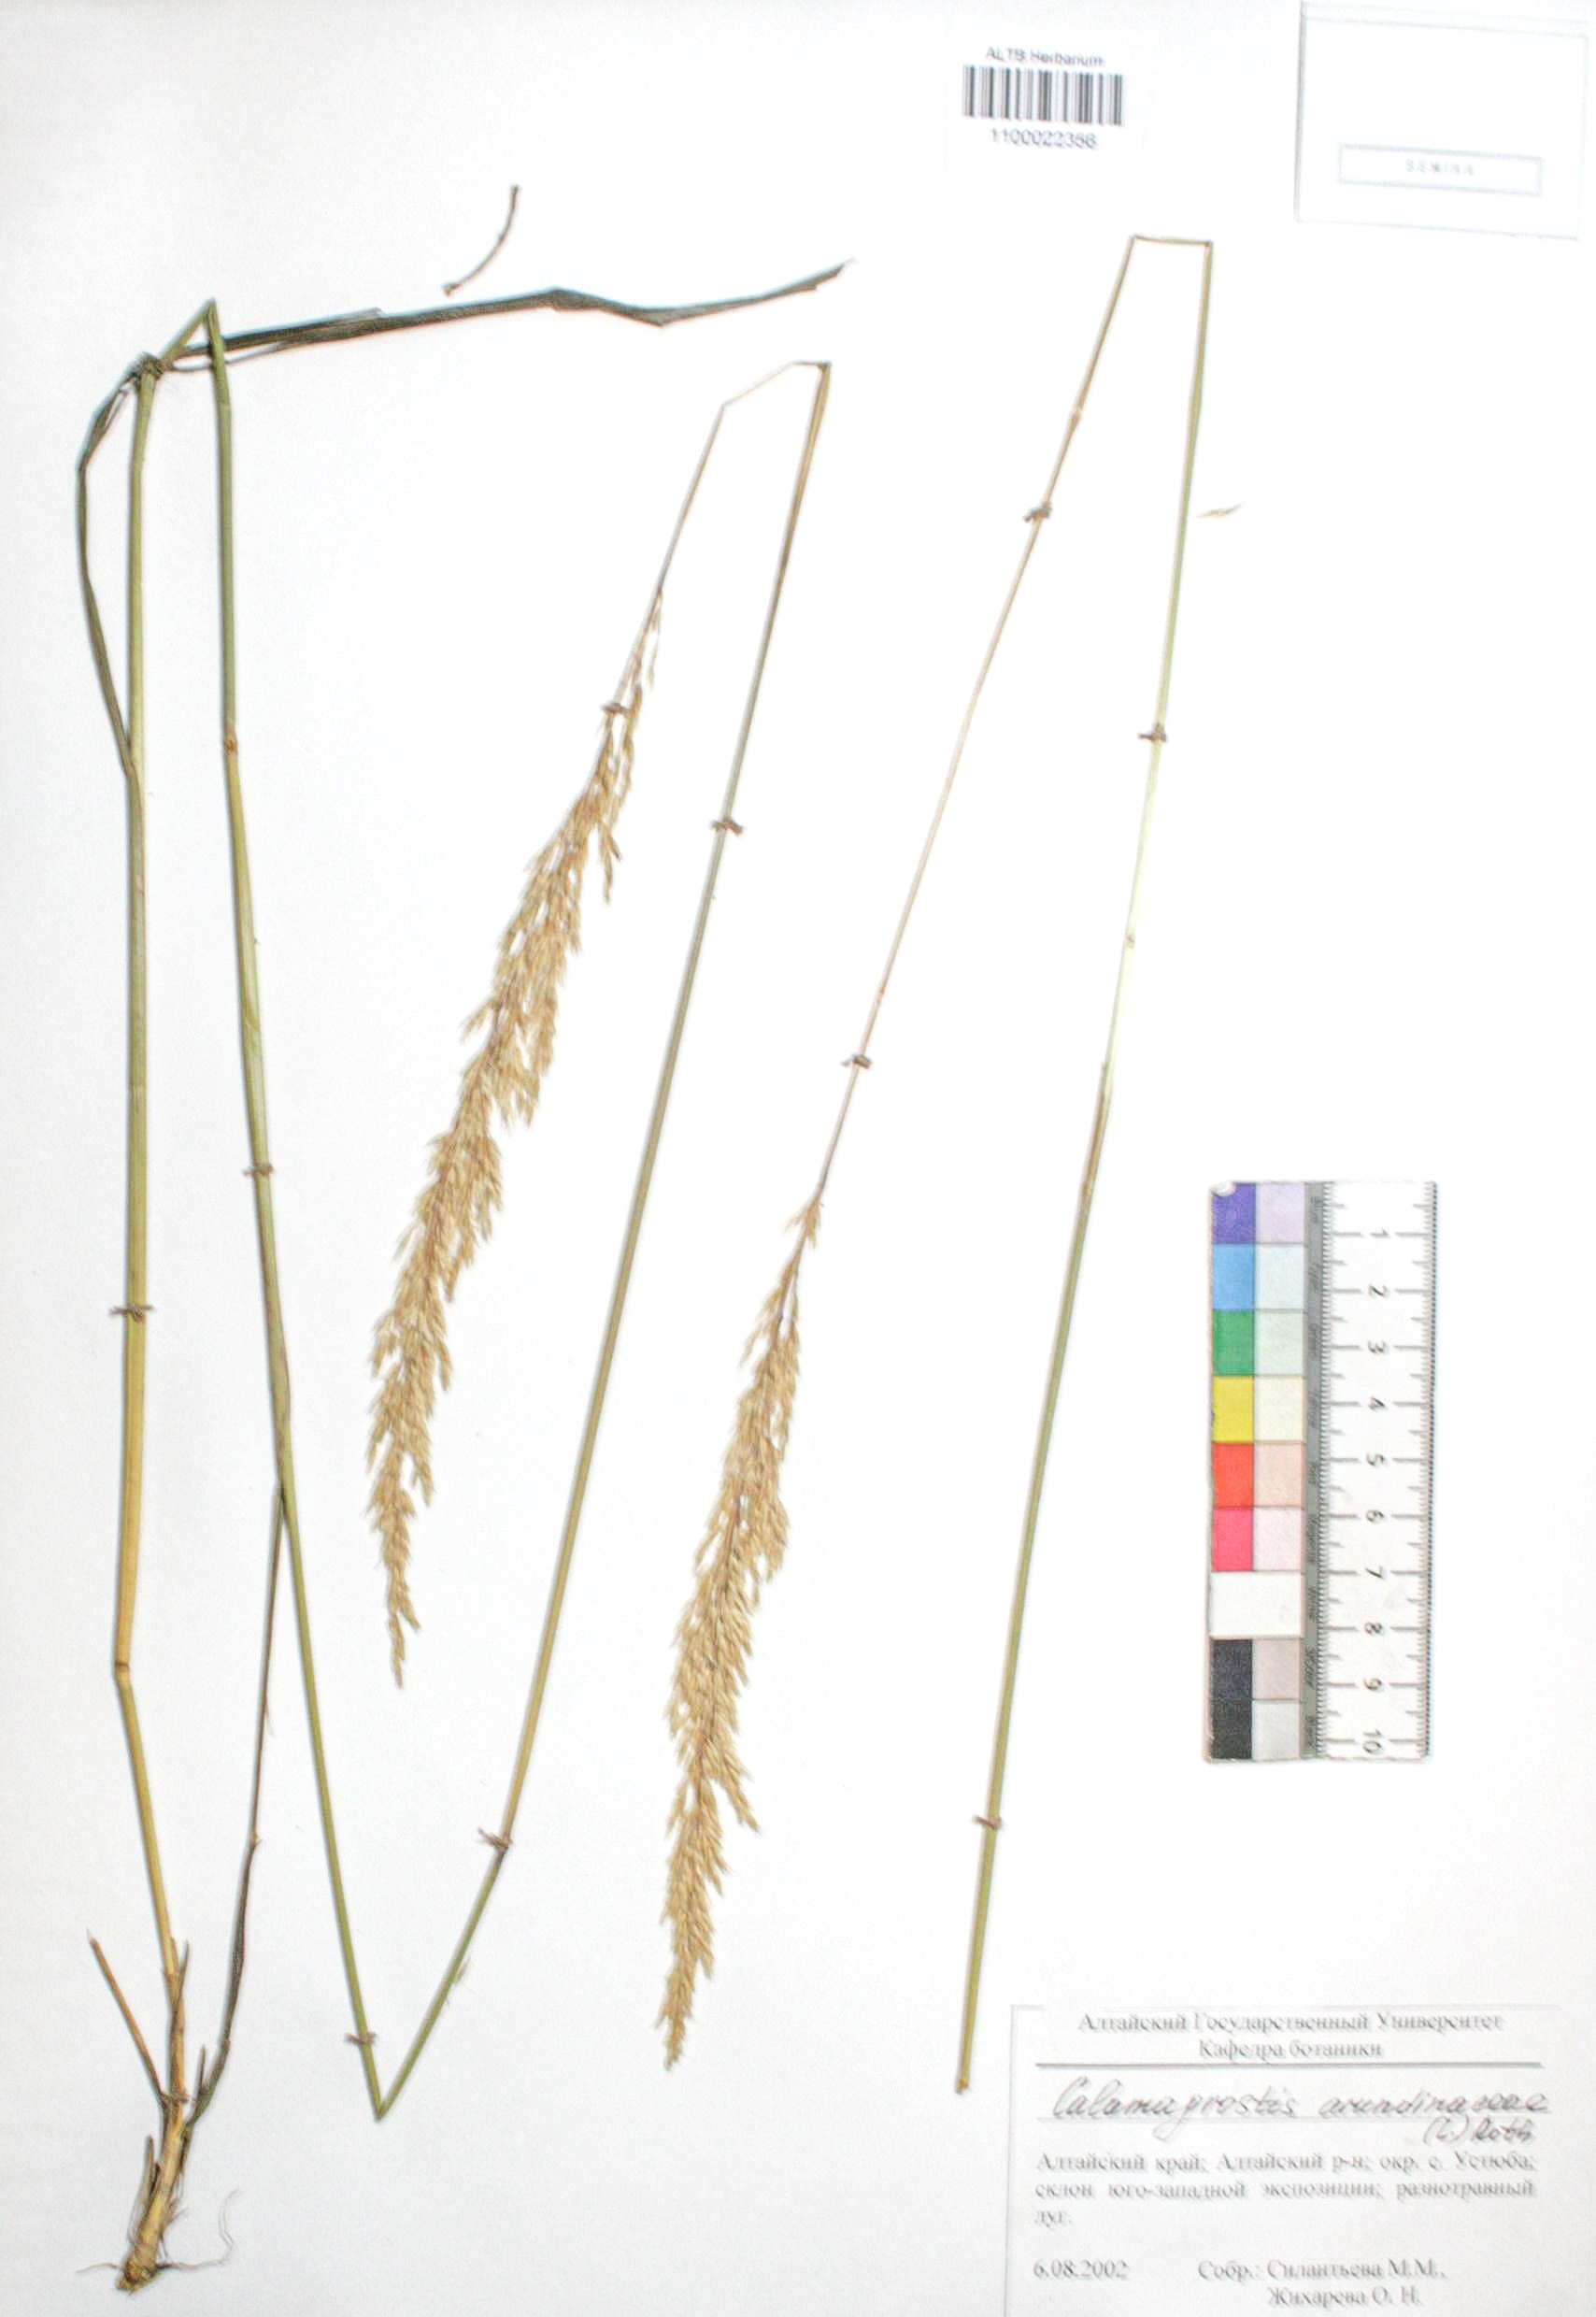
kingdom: Plantae
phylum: Tracheophyta
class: Liliopsida
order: Poales
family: Poaceae
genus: Calamagrostis
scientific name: Calamagrostis arundinacea
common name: Metskastik
